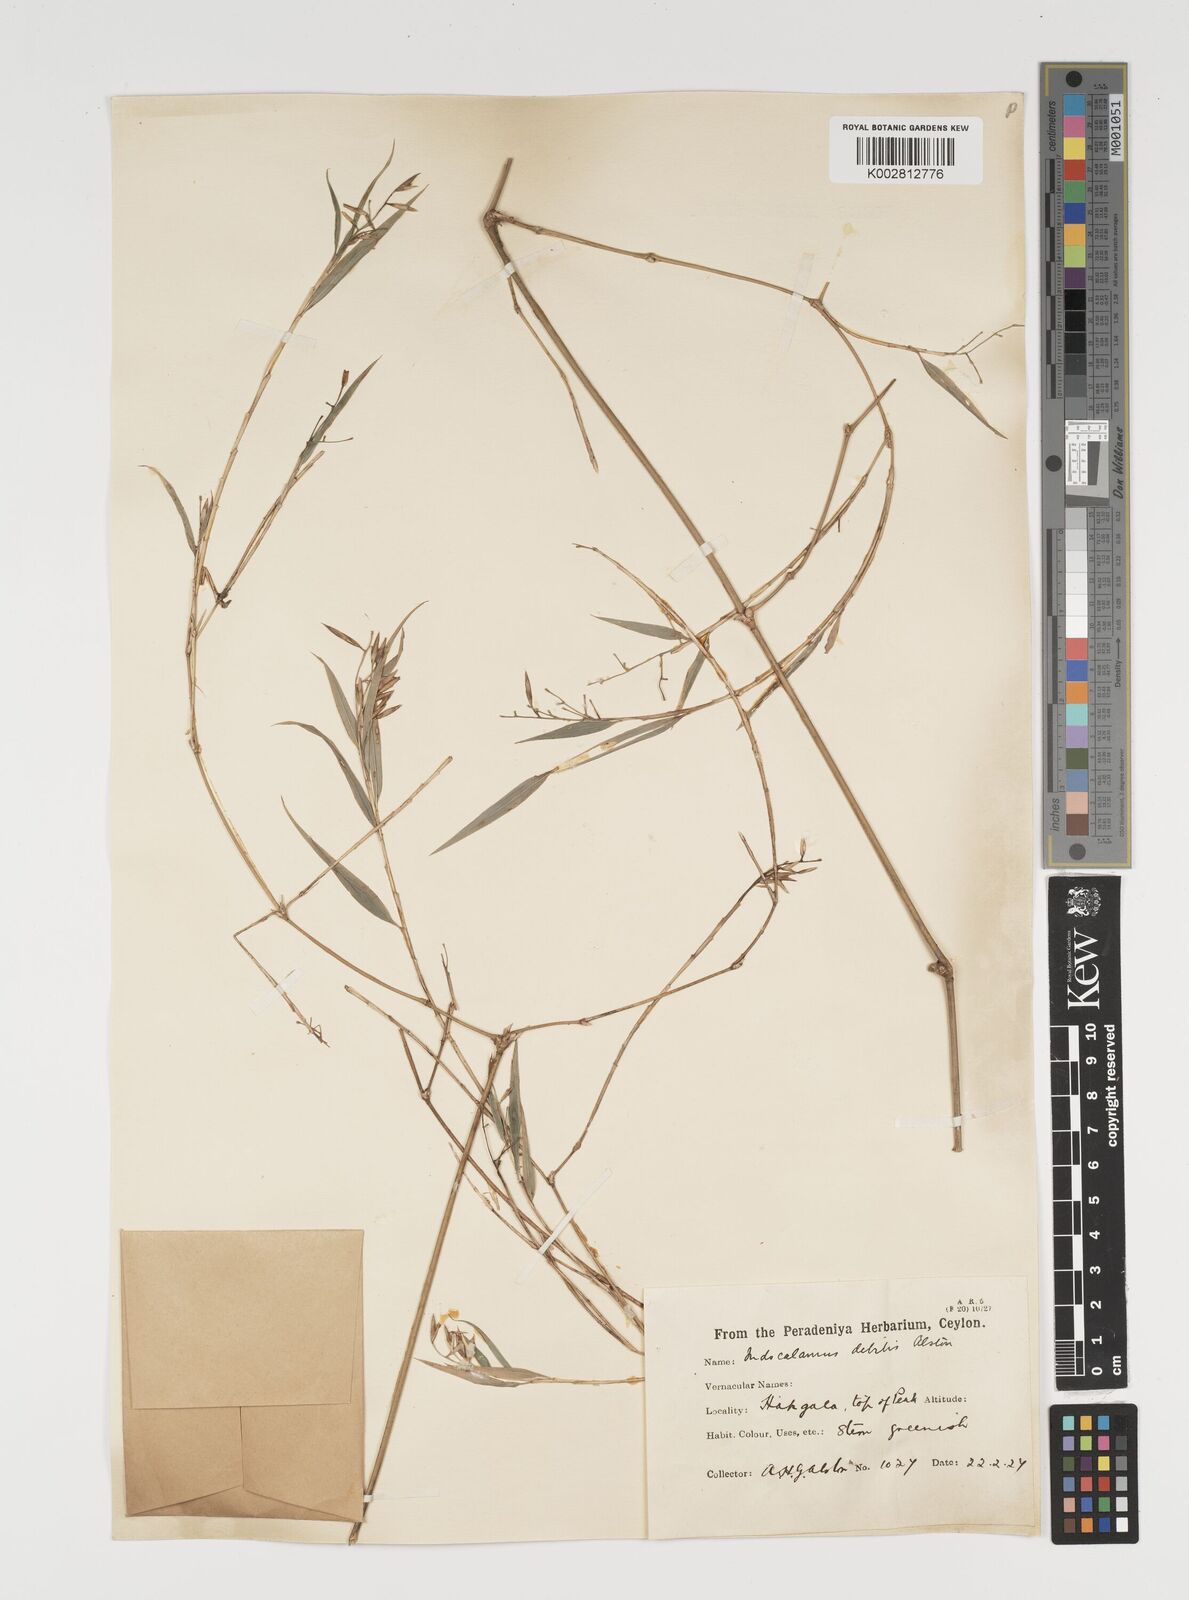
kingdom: Plantae
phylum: Tracheophyta
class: Liliopsida
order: Poales
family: Poaceae
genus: Kuruna
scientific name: Kuruna debilis
